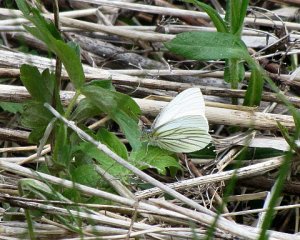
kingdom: Animalia
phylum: Arthropoda
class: Insecta
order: Lepidoptera
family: Pieridae
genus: Pieris
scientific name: Pieris oleracea
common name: Mustard White
